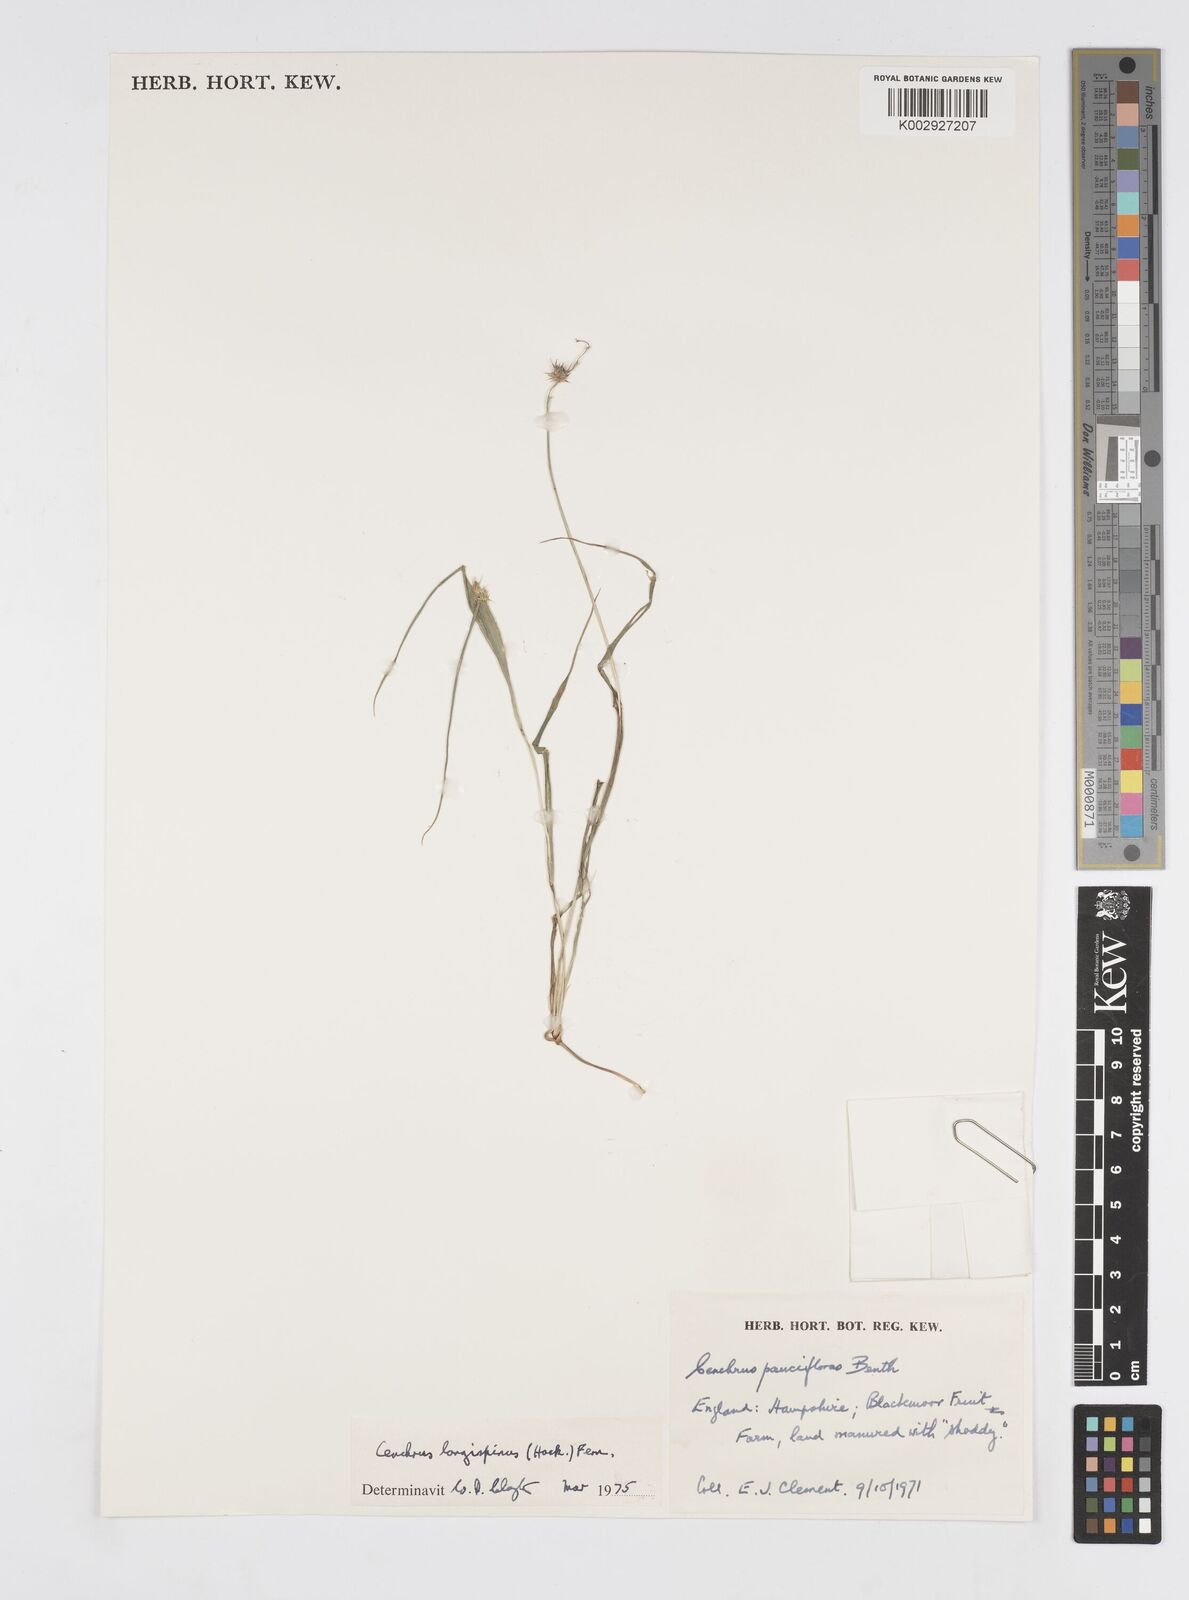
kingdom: Plantae
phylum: Tracheophyta
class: Liliopsida
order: Poales
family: Poaceae
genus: Cenchrus
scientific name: Cenchrus longispinus
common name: Mat sandbur
